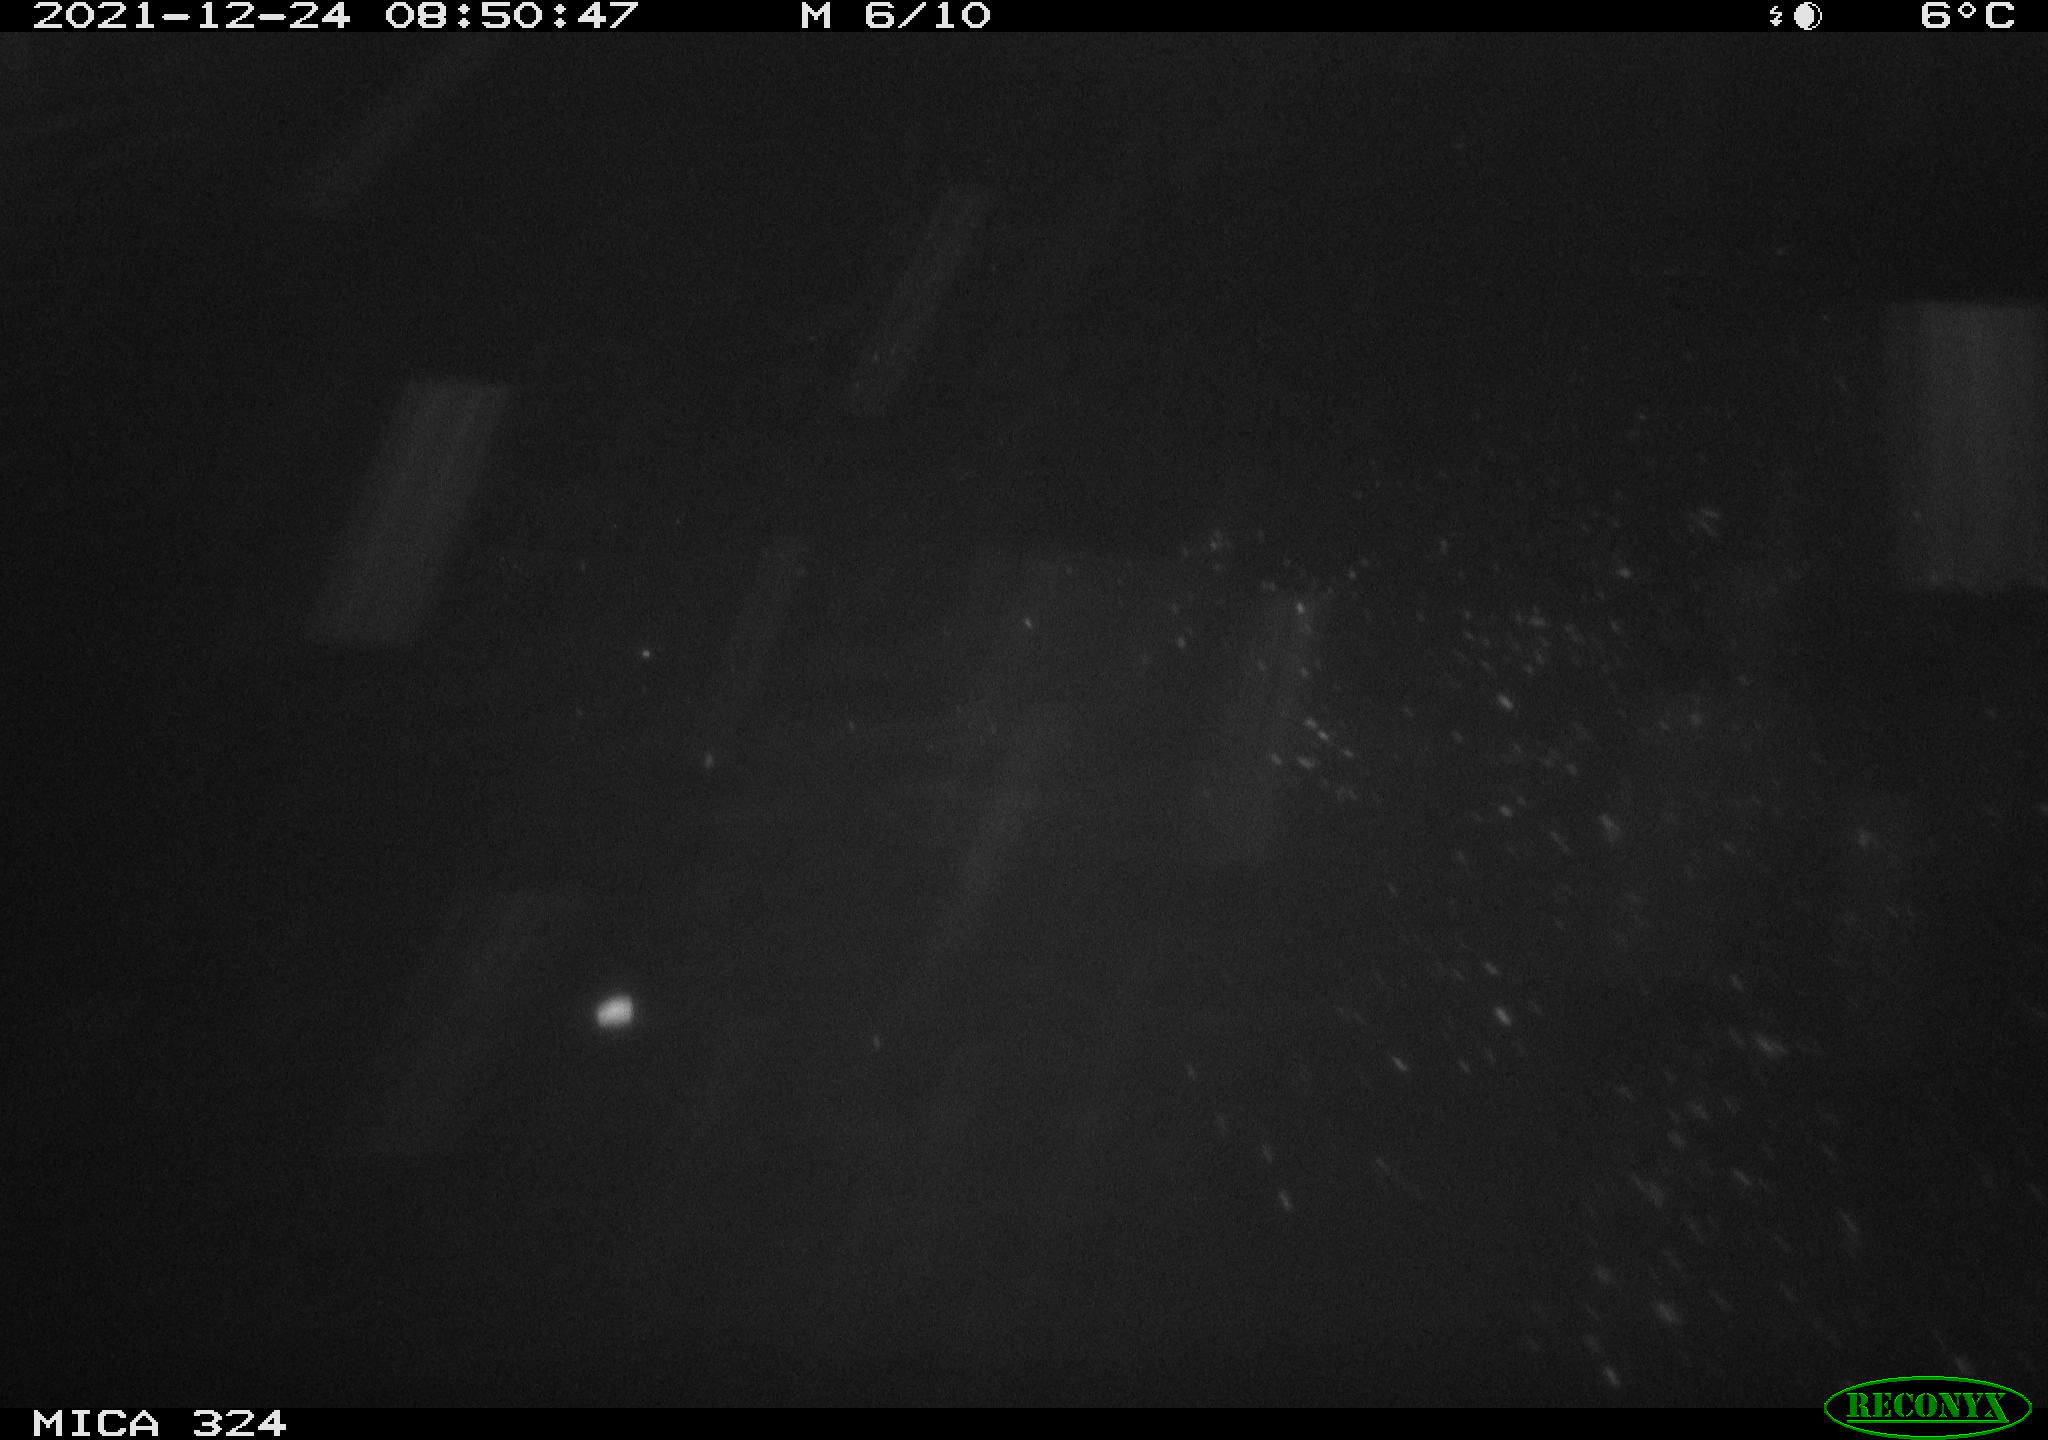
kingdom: Animalia
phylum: Chordata
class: Mammalia
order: Rodentia
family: Cricetidae
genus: Ondatra
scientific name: Ondatra zibethicus
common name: Muskrat
